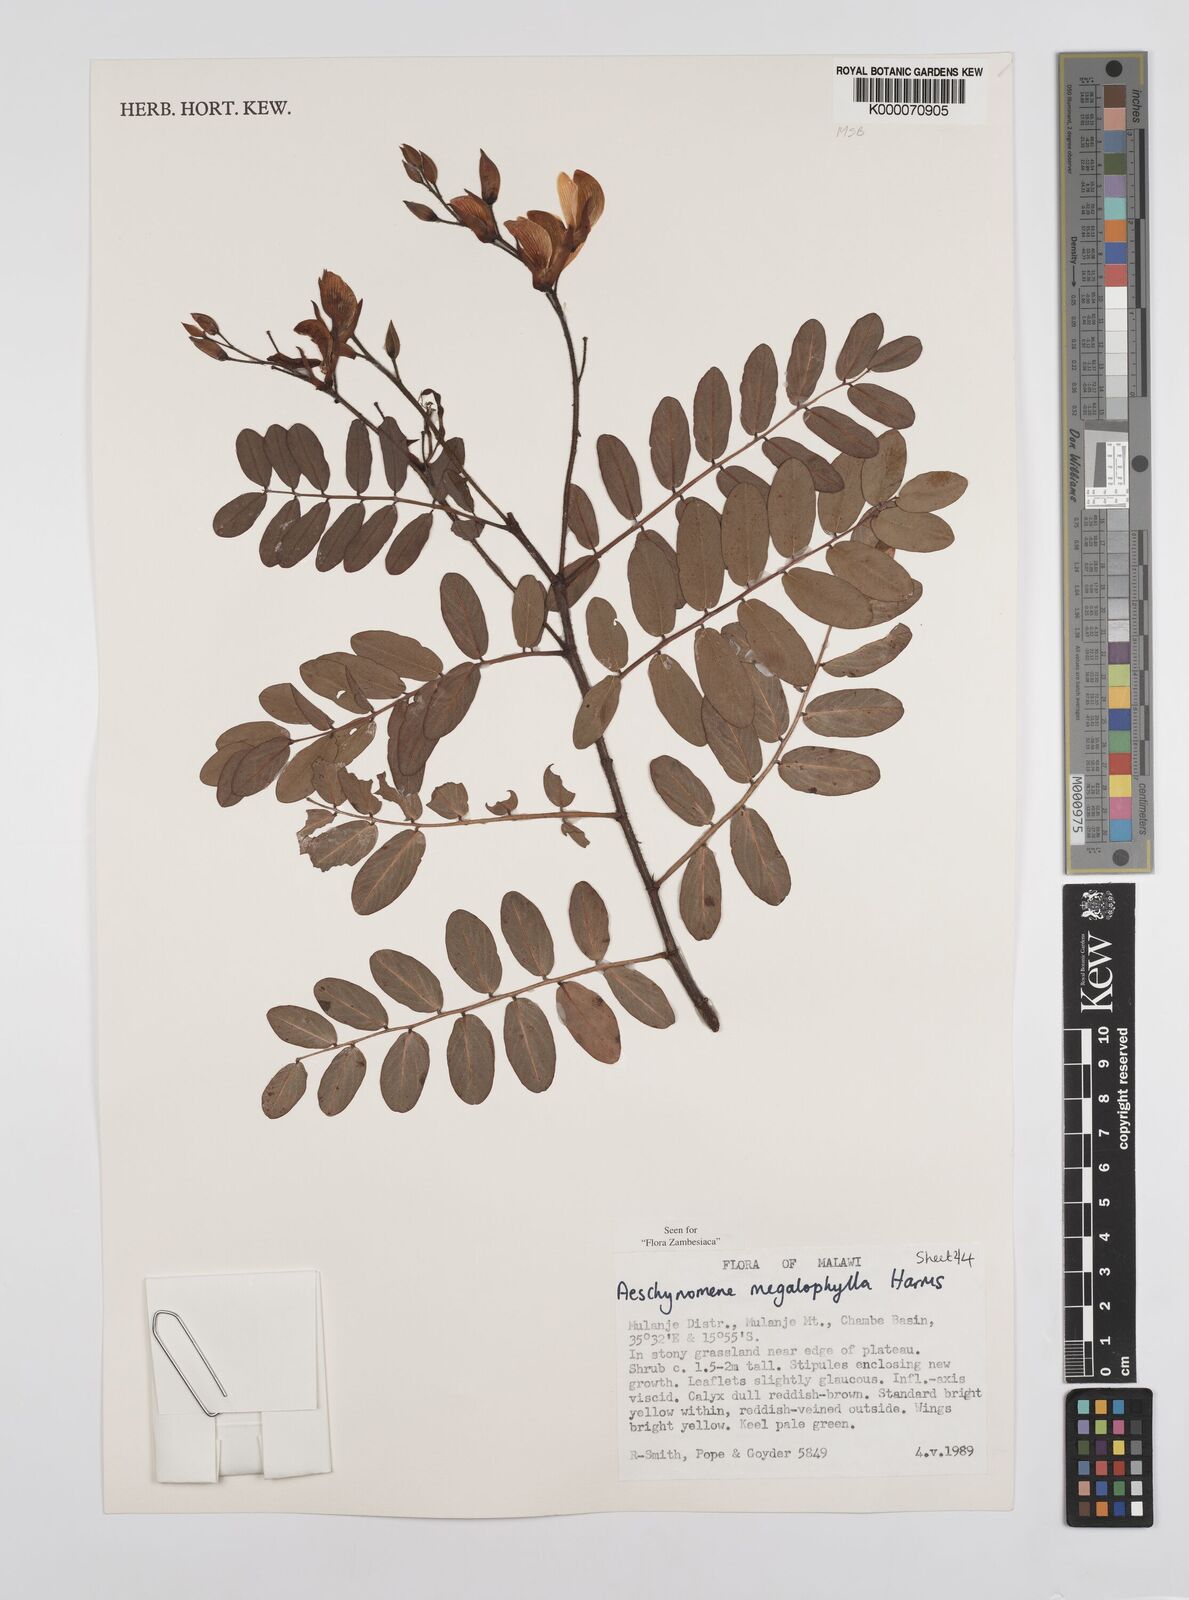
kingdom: Plantae
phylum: Tracheophyta
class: Magnoliopsida
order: Fabales
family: Fabaceae
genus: Aeschynomene
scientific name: Aeschynomene megalophylla
